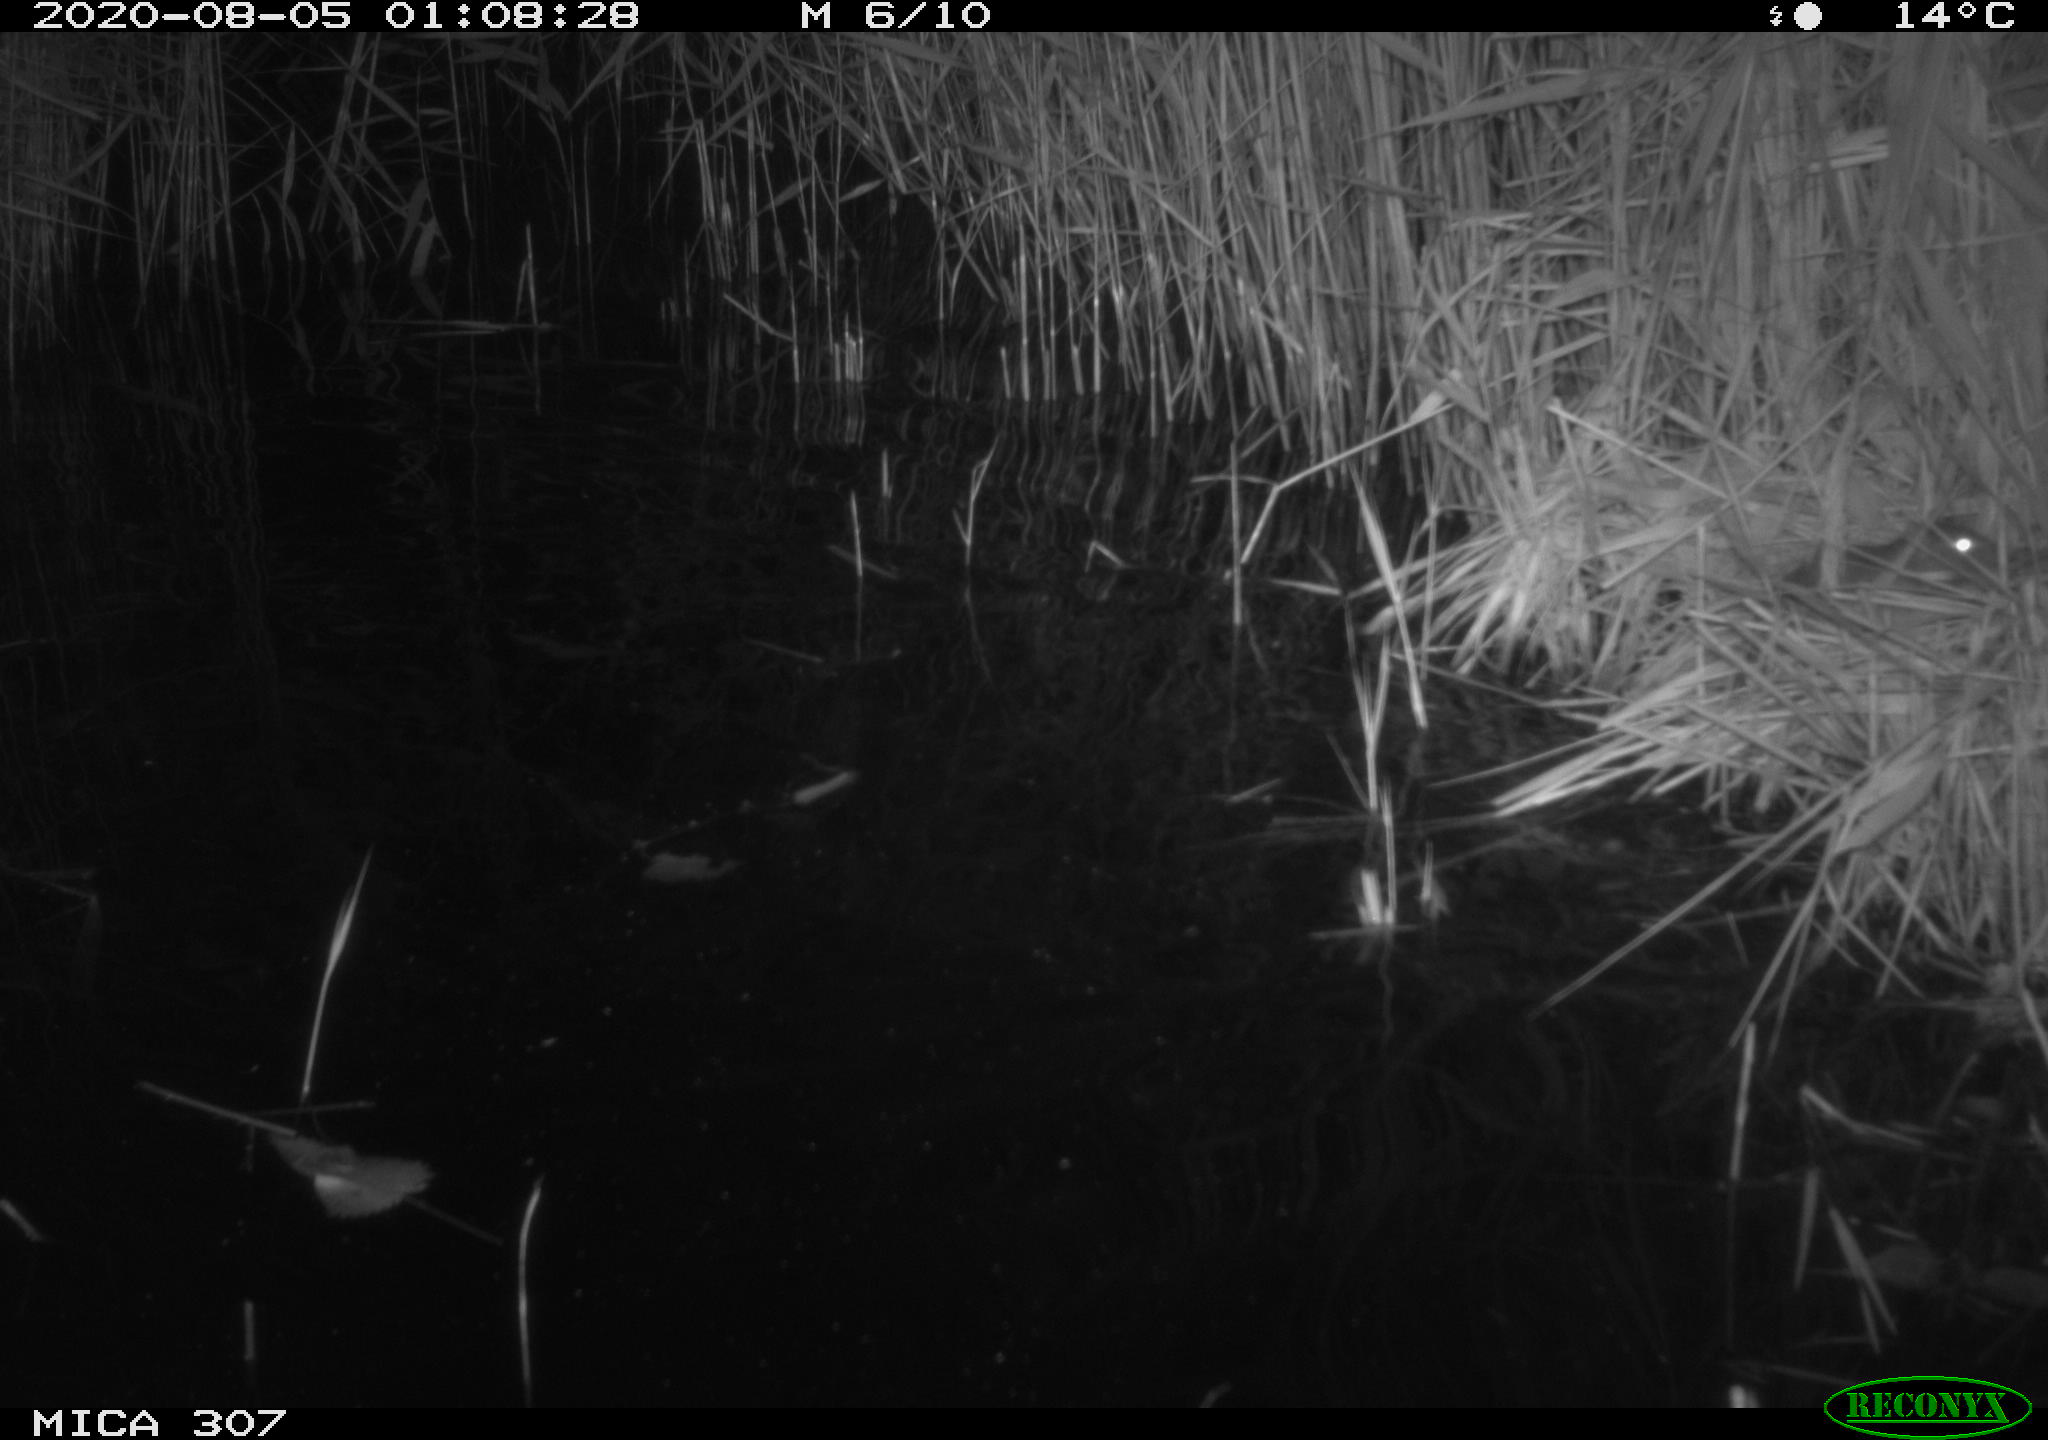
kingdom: Animalia
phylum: Chordata
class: Mammalia
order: Rodentia
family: Muridae
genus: Rattus
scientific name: Rattus norvegicus
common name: Brown rat
